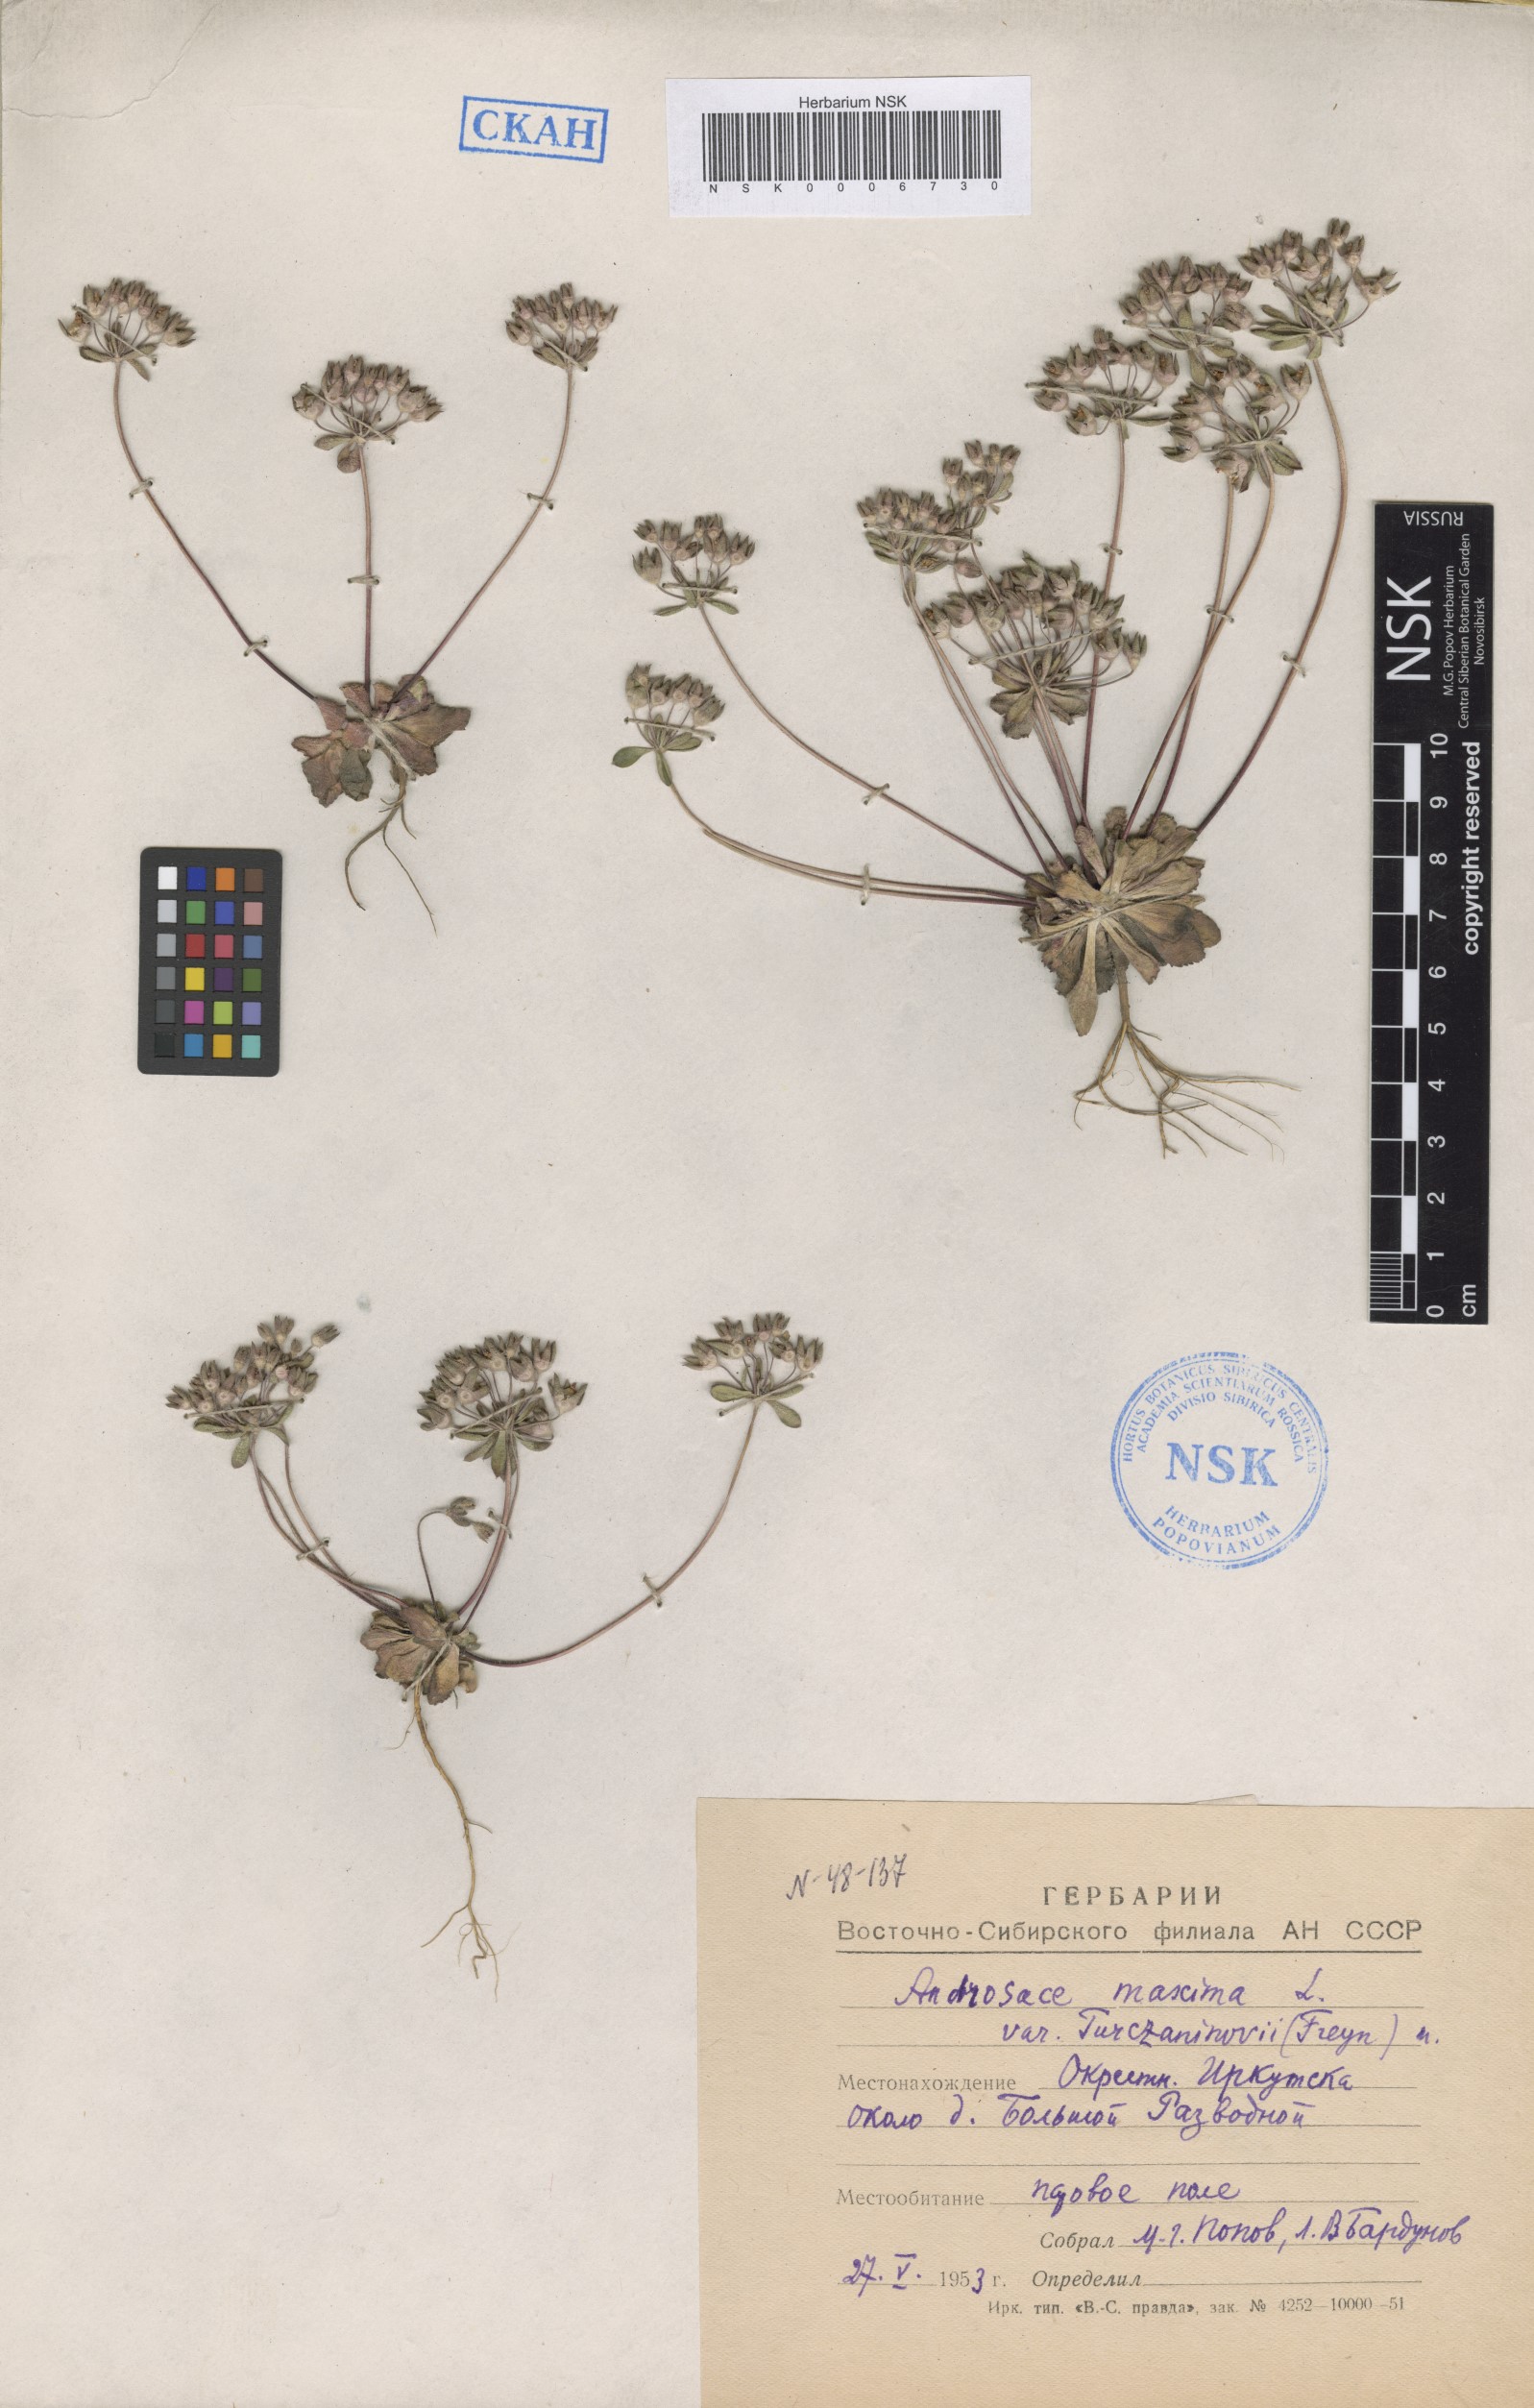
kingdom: Plantae
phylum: Tracheophyta
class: Magnoliopsida
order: Ericales
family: Primulaceae
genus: Androsace
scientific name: Androsace maxima
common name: Annual androsace
